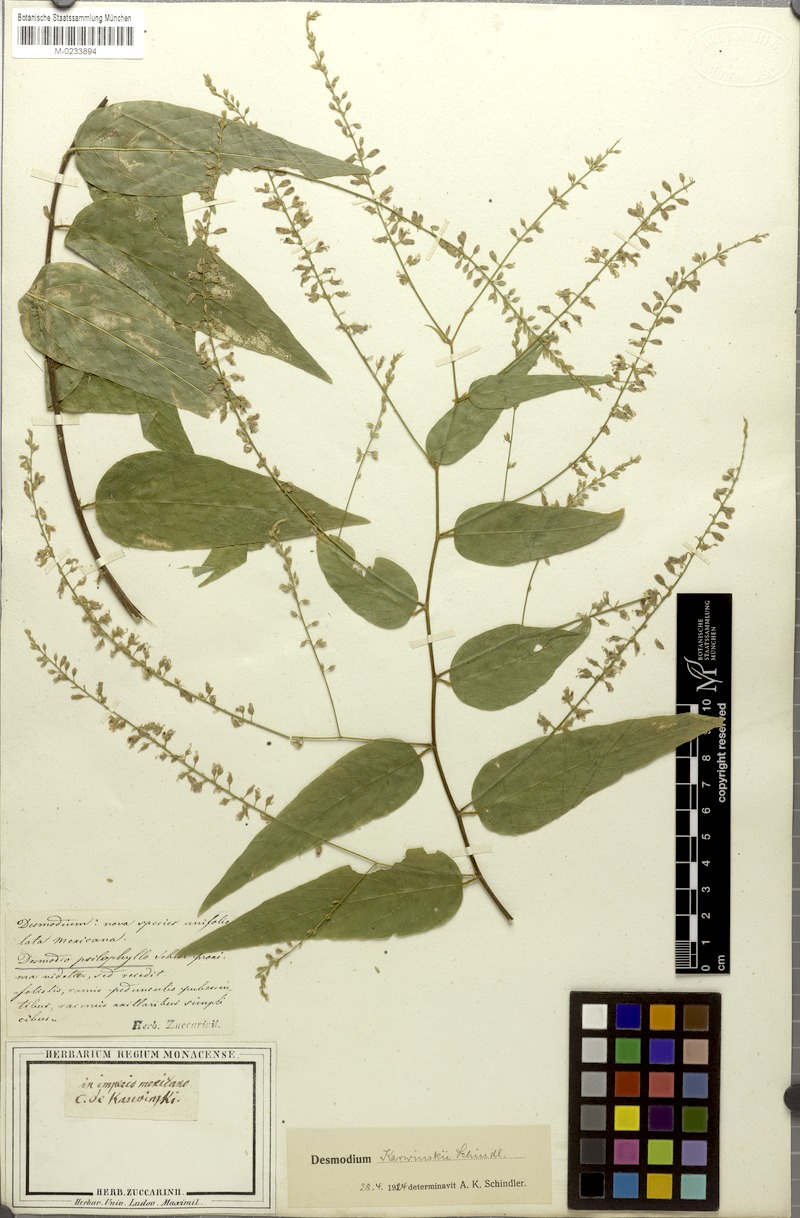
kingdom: Plantae
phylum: Tracheophyta
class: Magnoliopsida
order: Fabales
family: Fabaceae
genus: Desmodium
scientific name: Desmodium karwinskii
